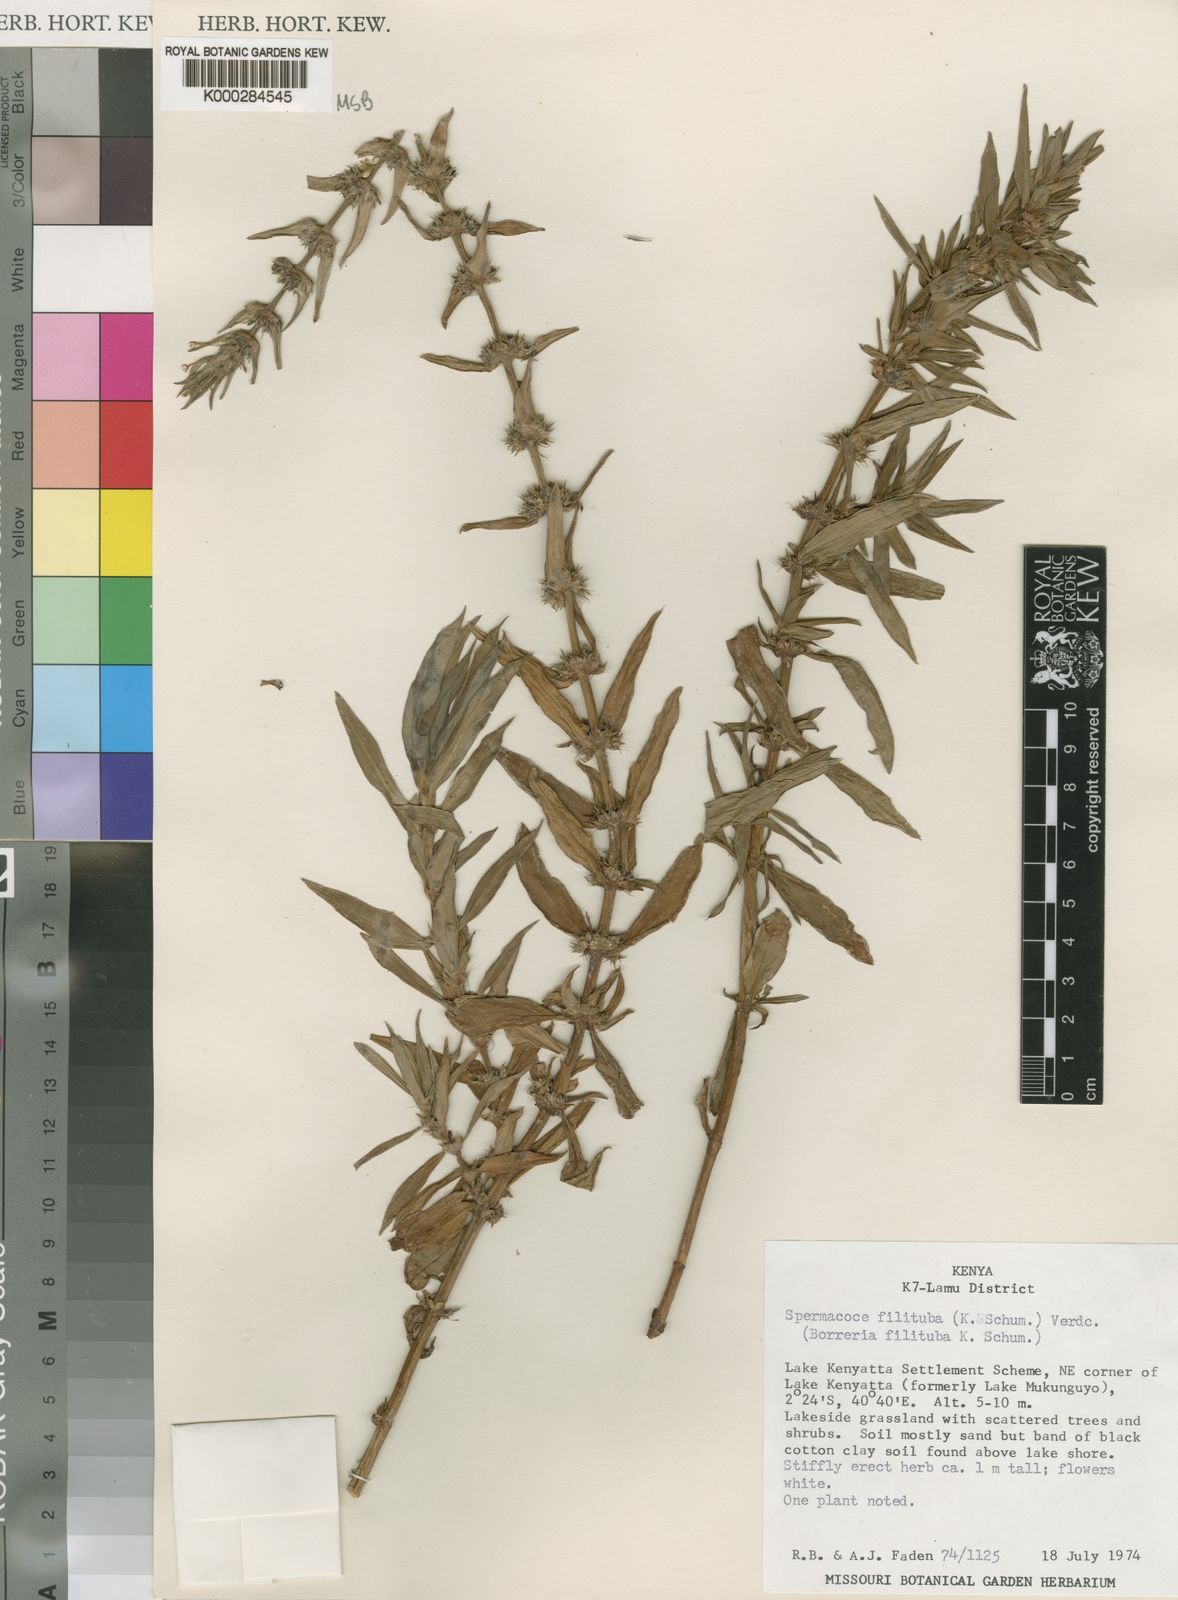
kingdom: Plantae
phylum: Tracheophyta
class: Magnoliopsida
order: Gentianales
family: Rubiaceae
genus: Spermacoce
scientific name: Spermacoce filituba
